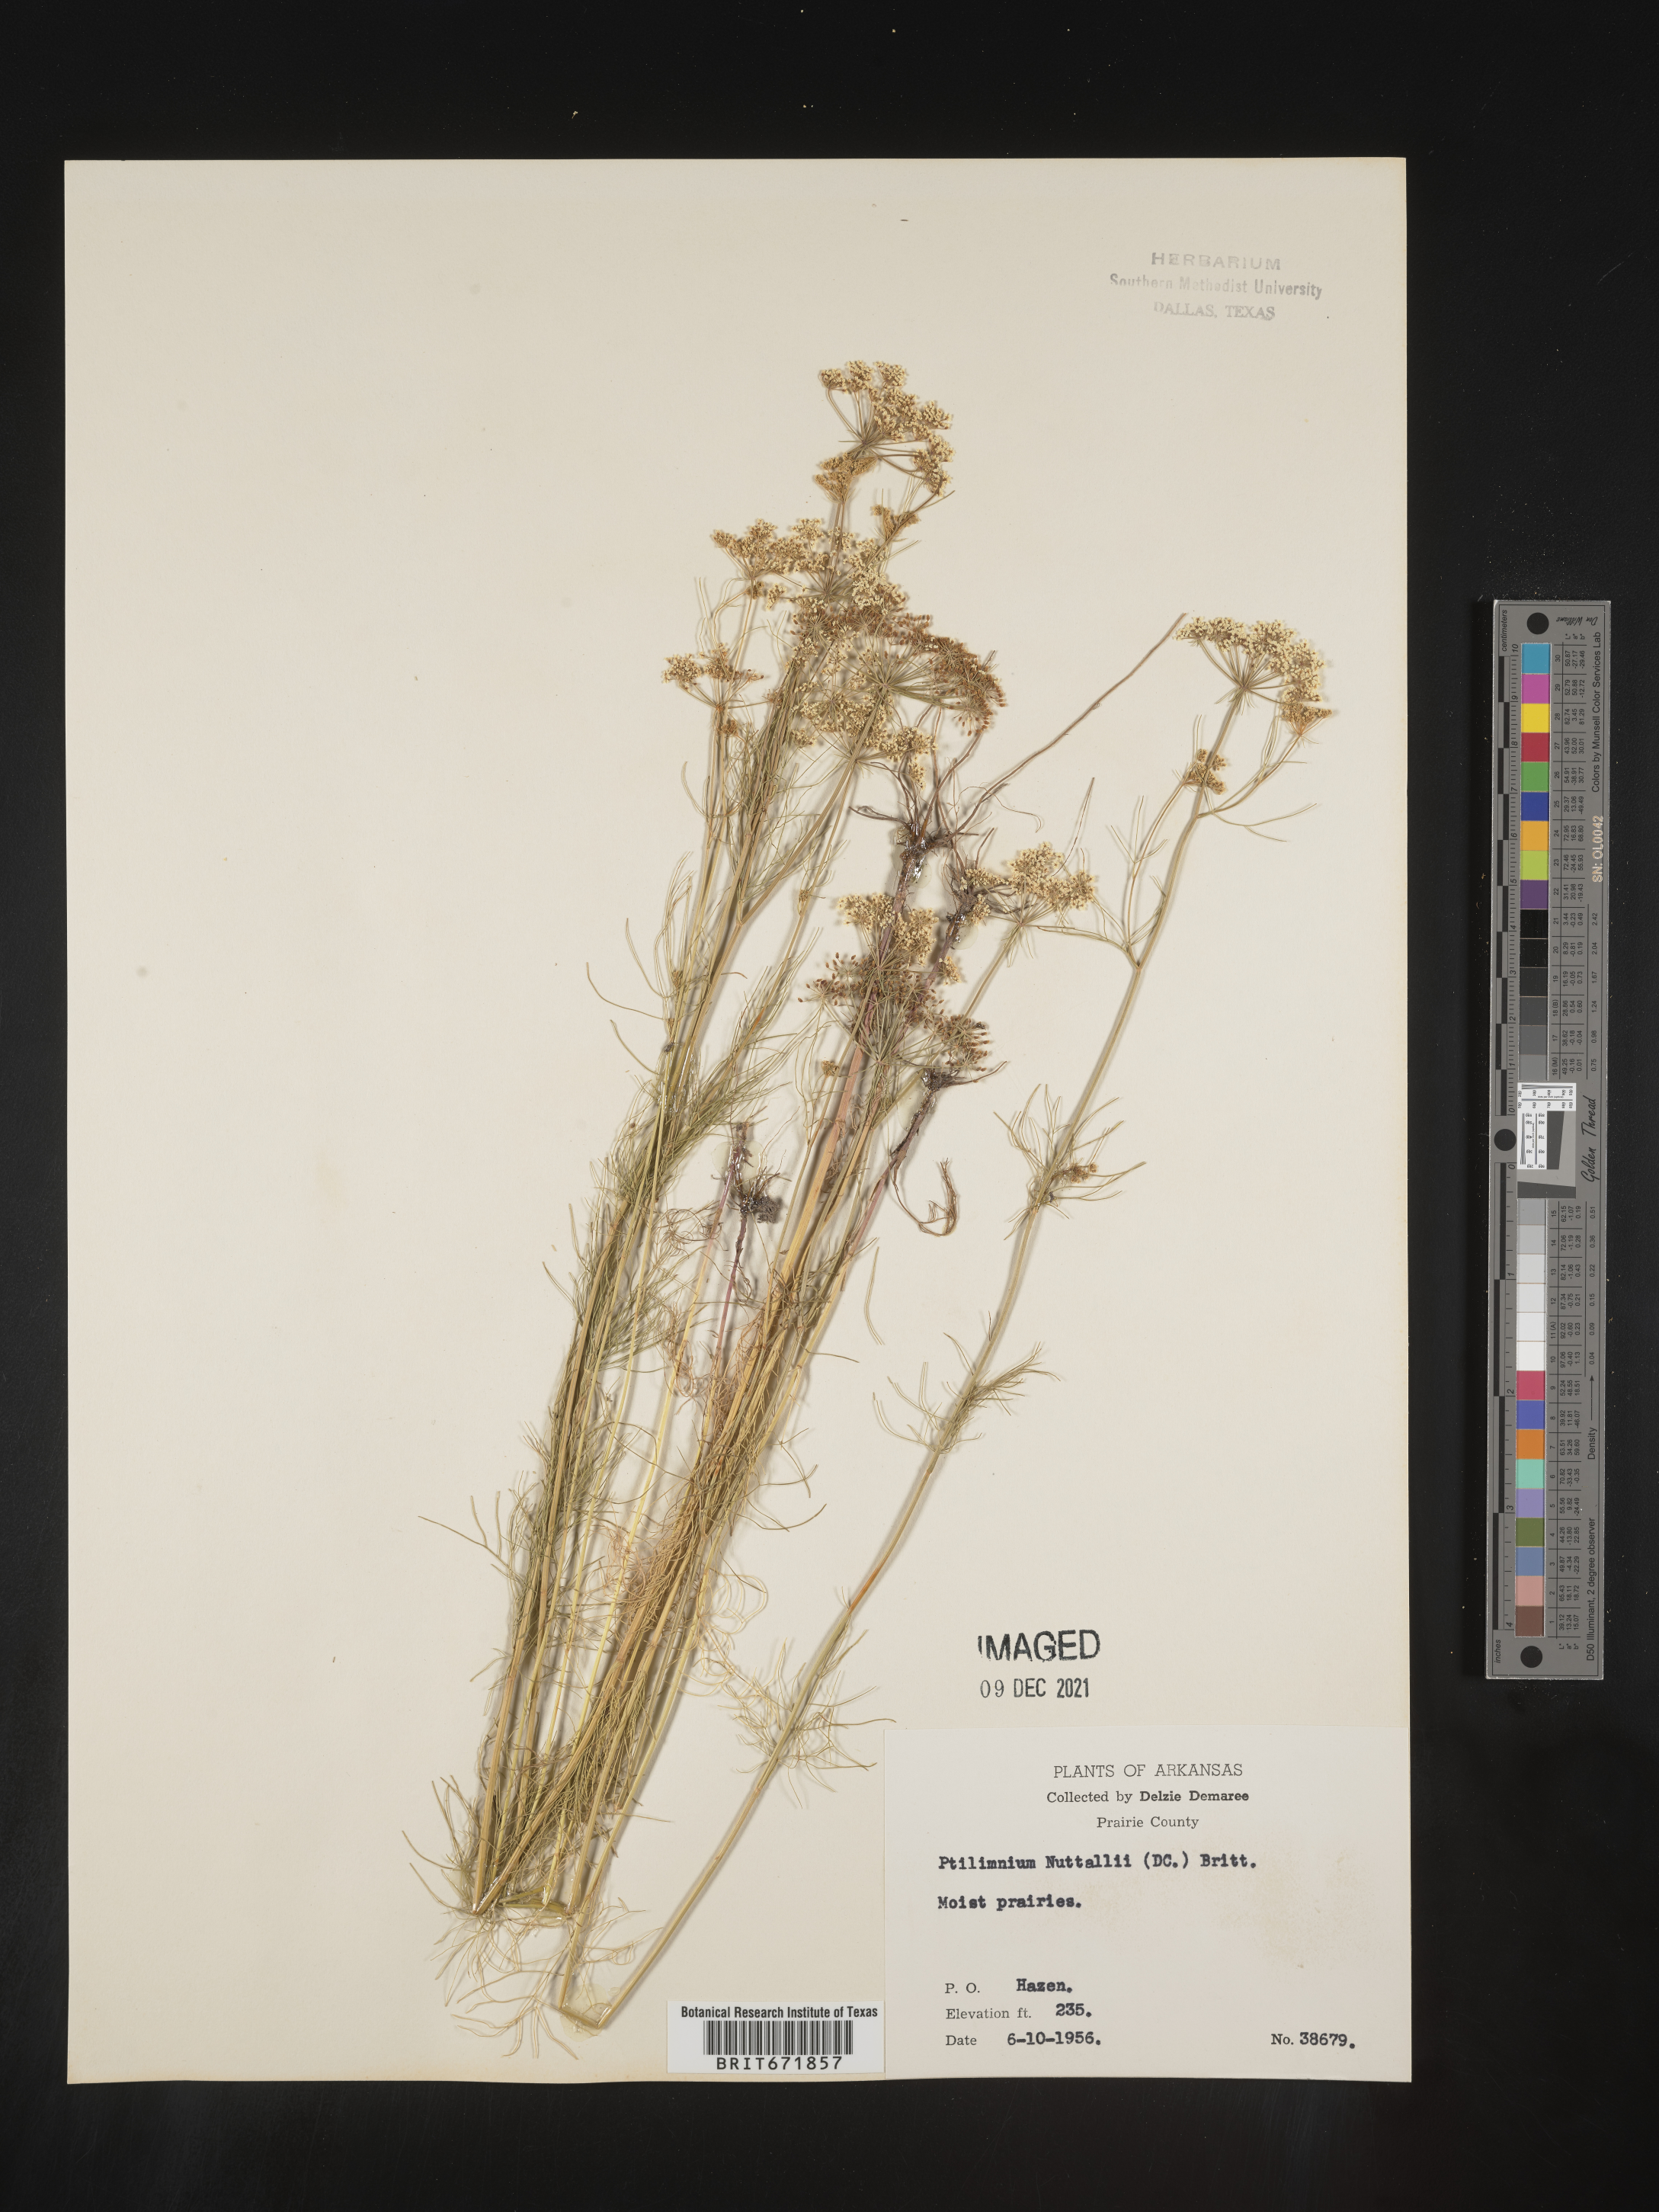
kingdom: Plantae
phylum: Tracheophyta
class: Magnoliopsida
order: Apiales
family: Apiaceae
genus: Ptilimnium
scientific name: Ptilimnium nuttallii
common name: Ozark bishop's-weed
